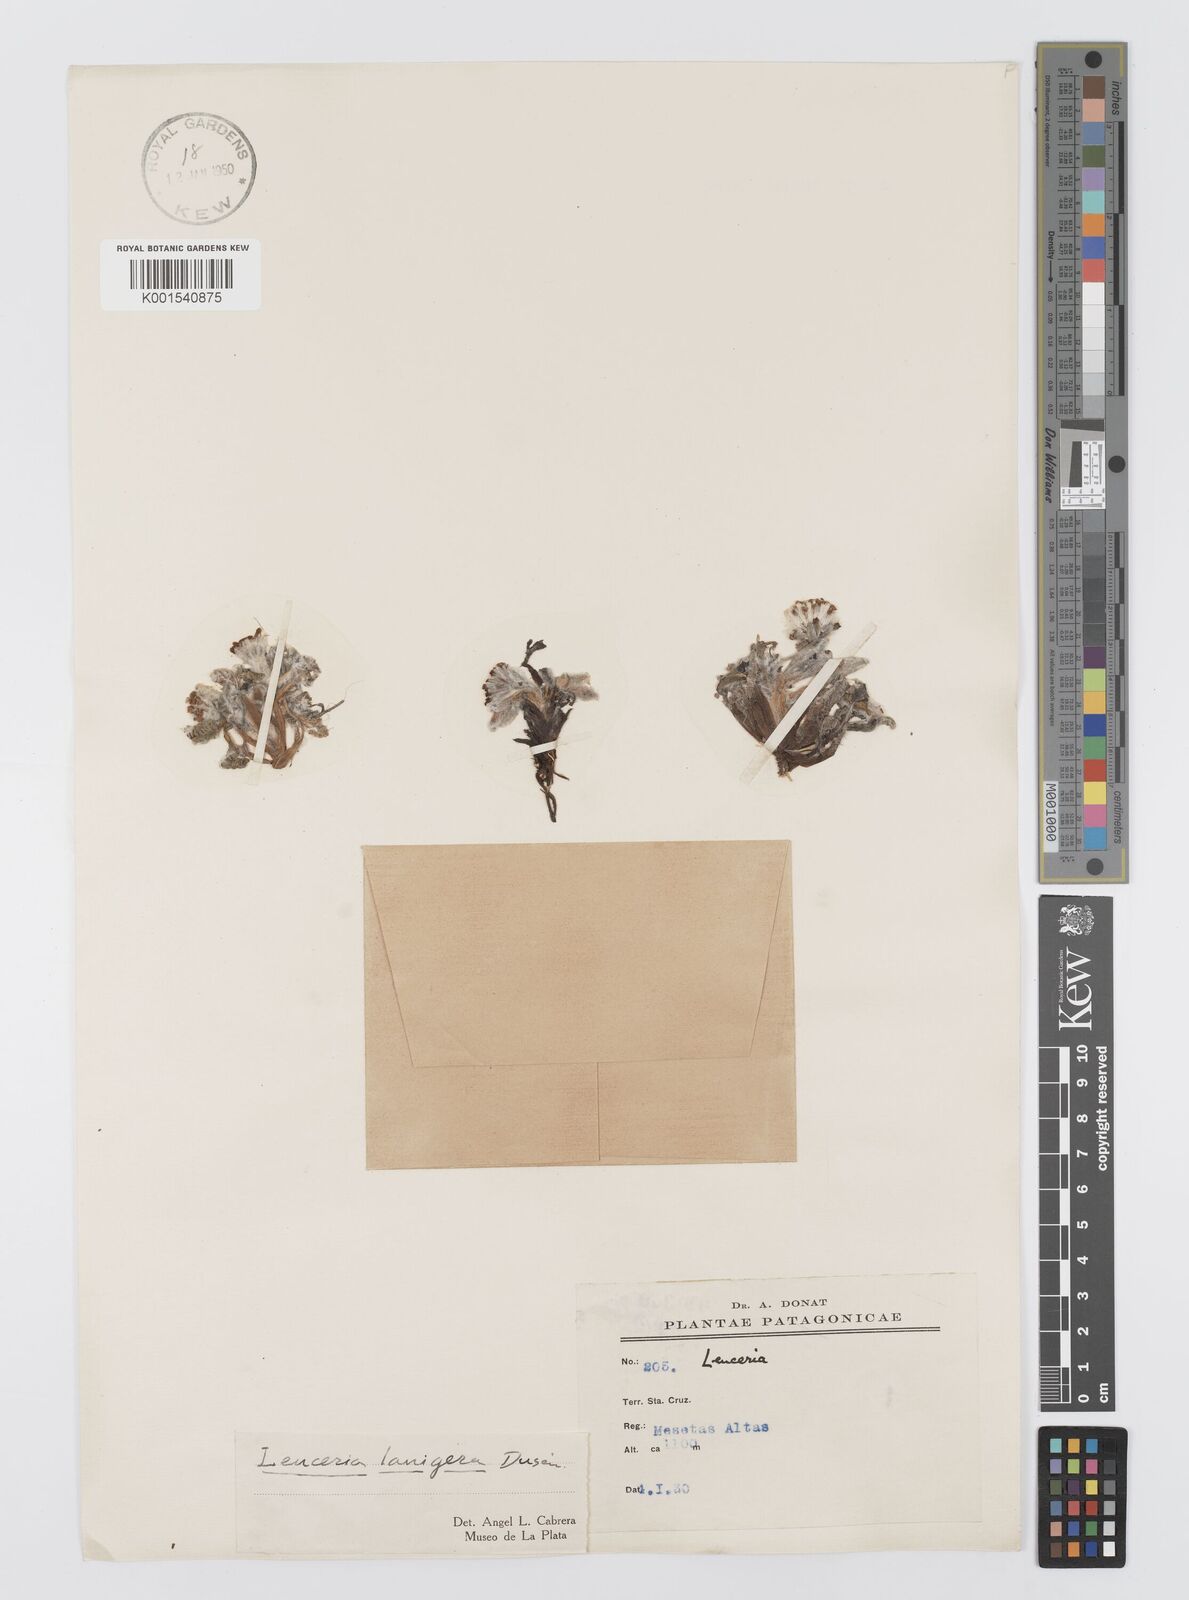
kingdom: Plantae
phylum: Tracheophyta
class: Magnoliopsida
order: Asterales
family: Asteraceae
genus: Leucheria
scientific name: Leucheria leontopodioides
